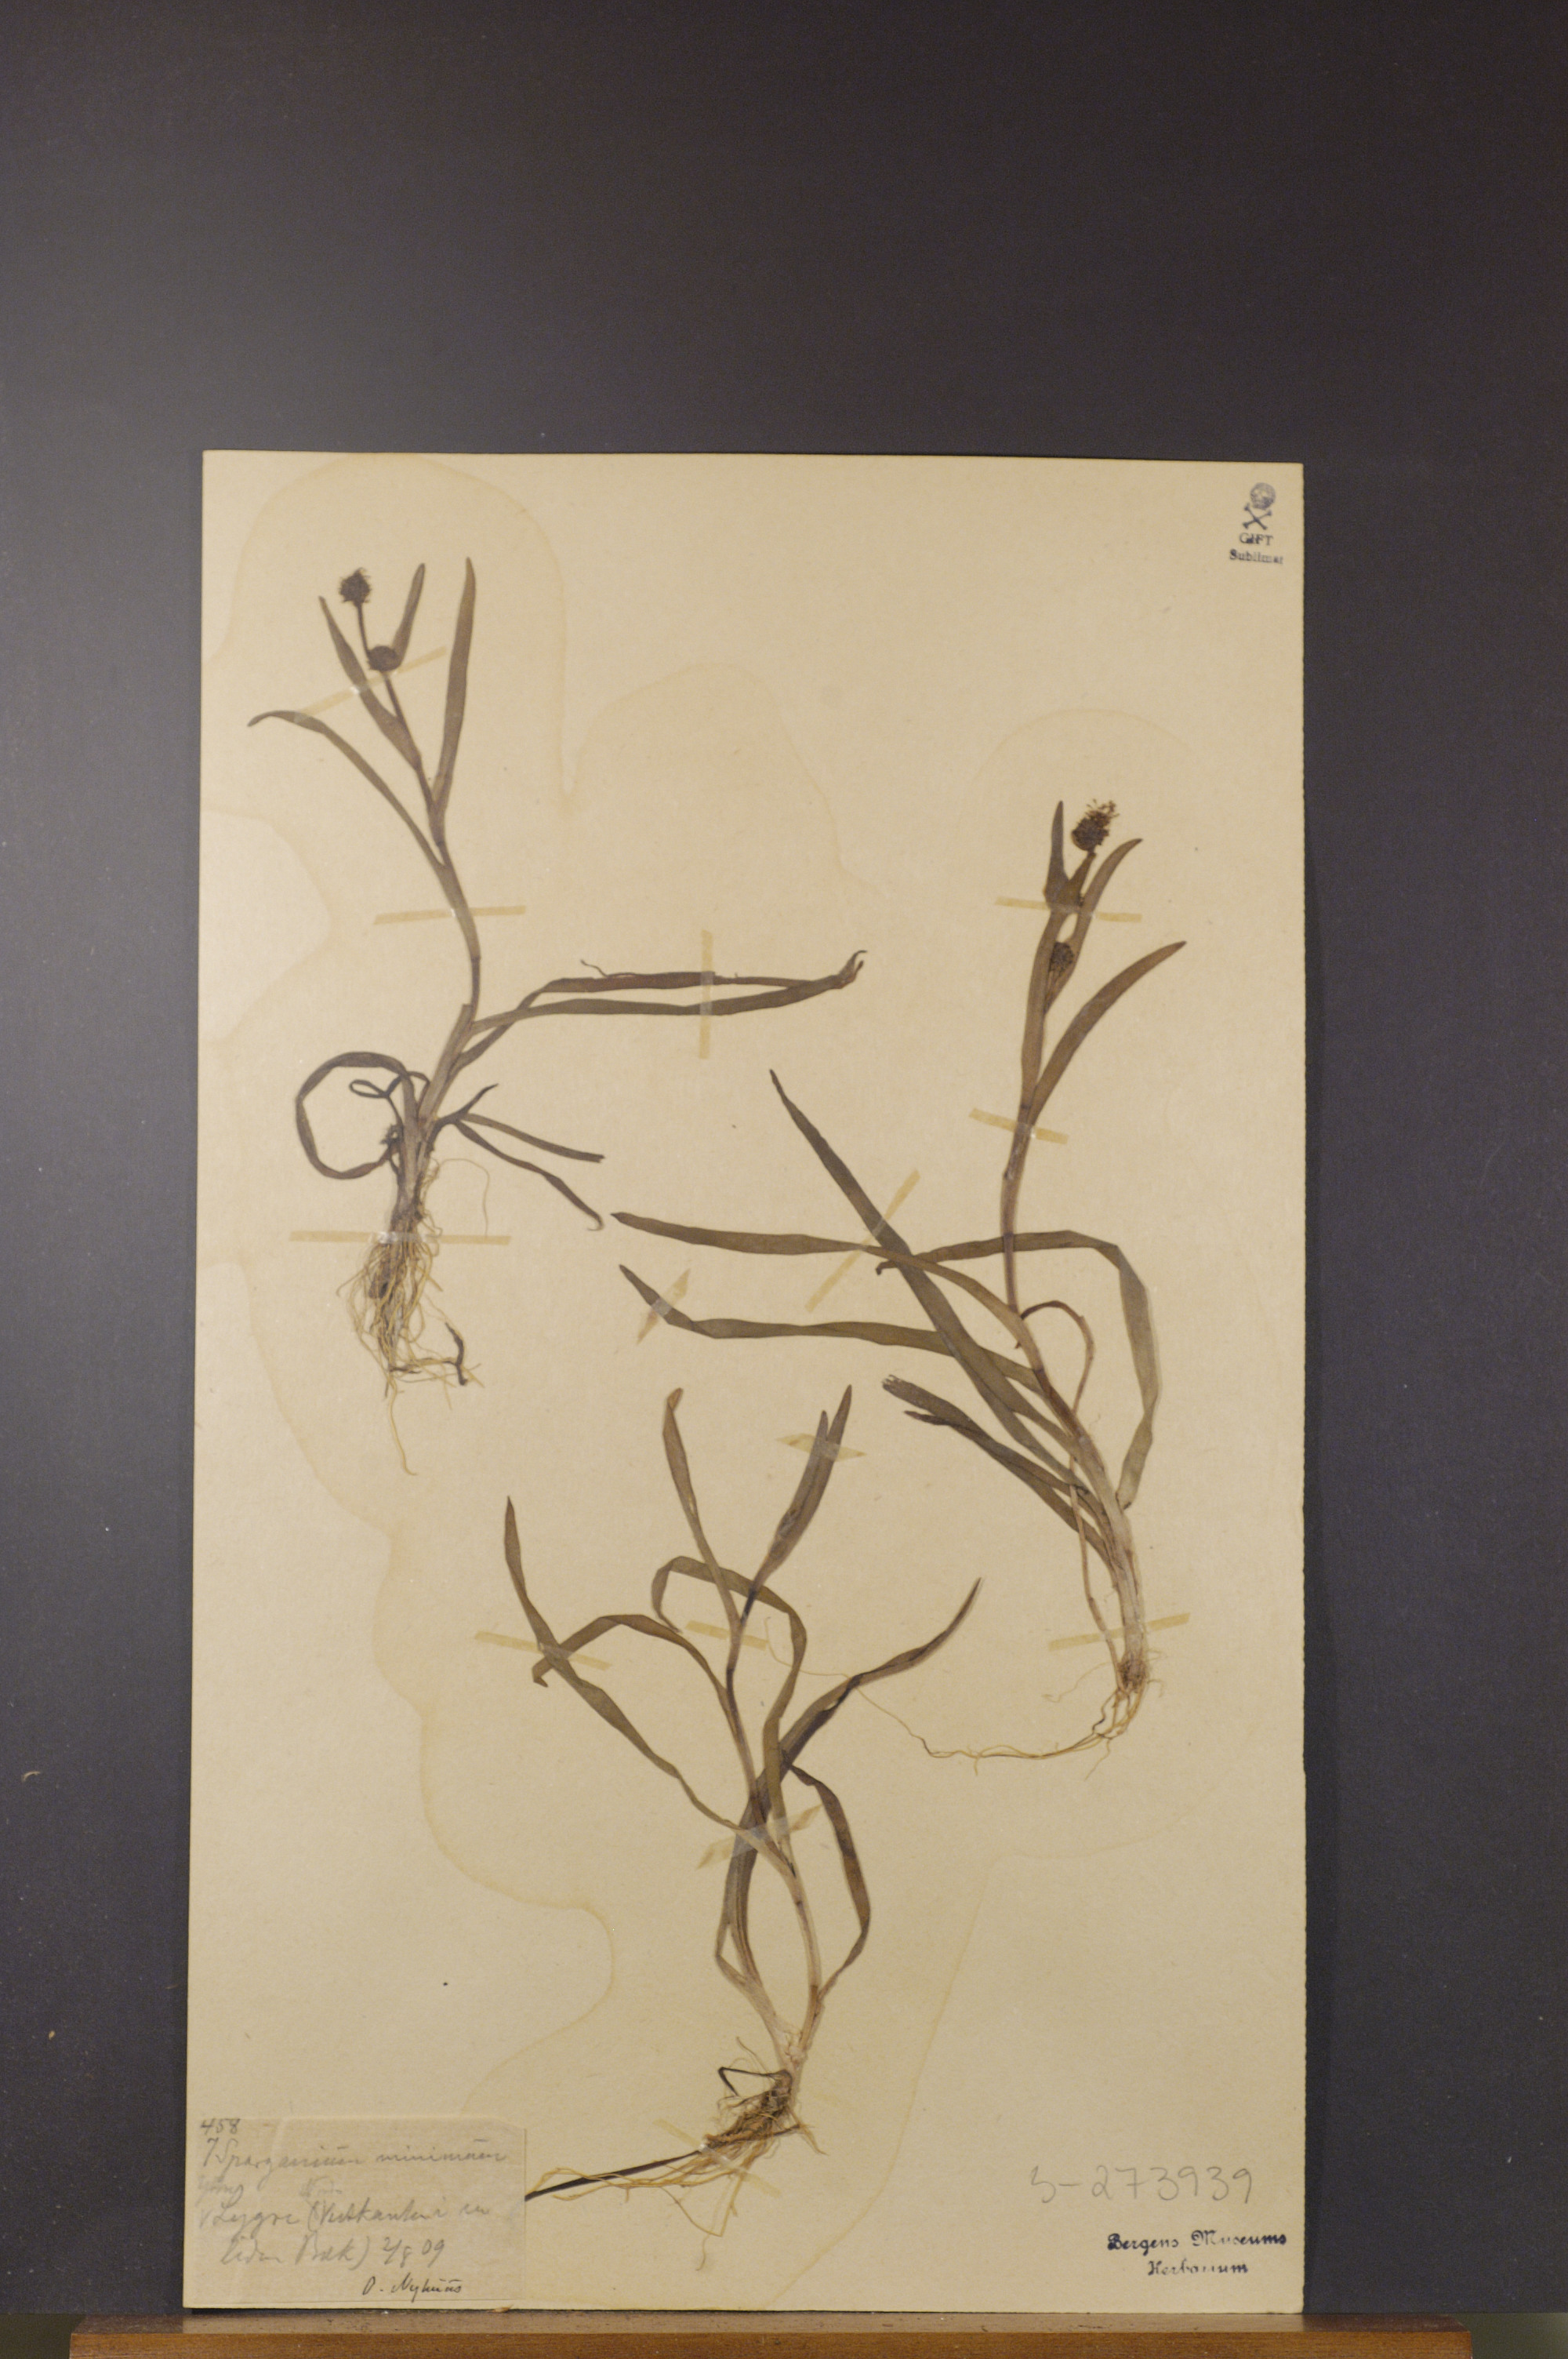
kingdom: Plantae
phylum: Tracheophyta
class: Liliopsida
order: Poales
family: Typhaceae
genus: Sparganium
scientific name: Sparganium natans
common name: Least bur-reed
